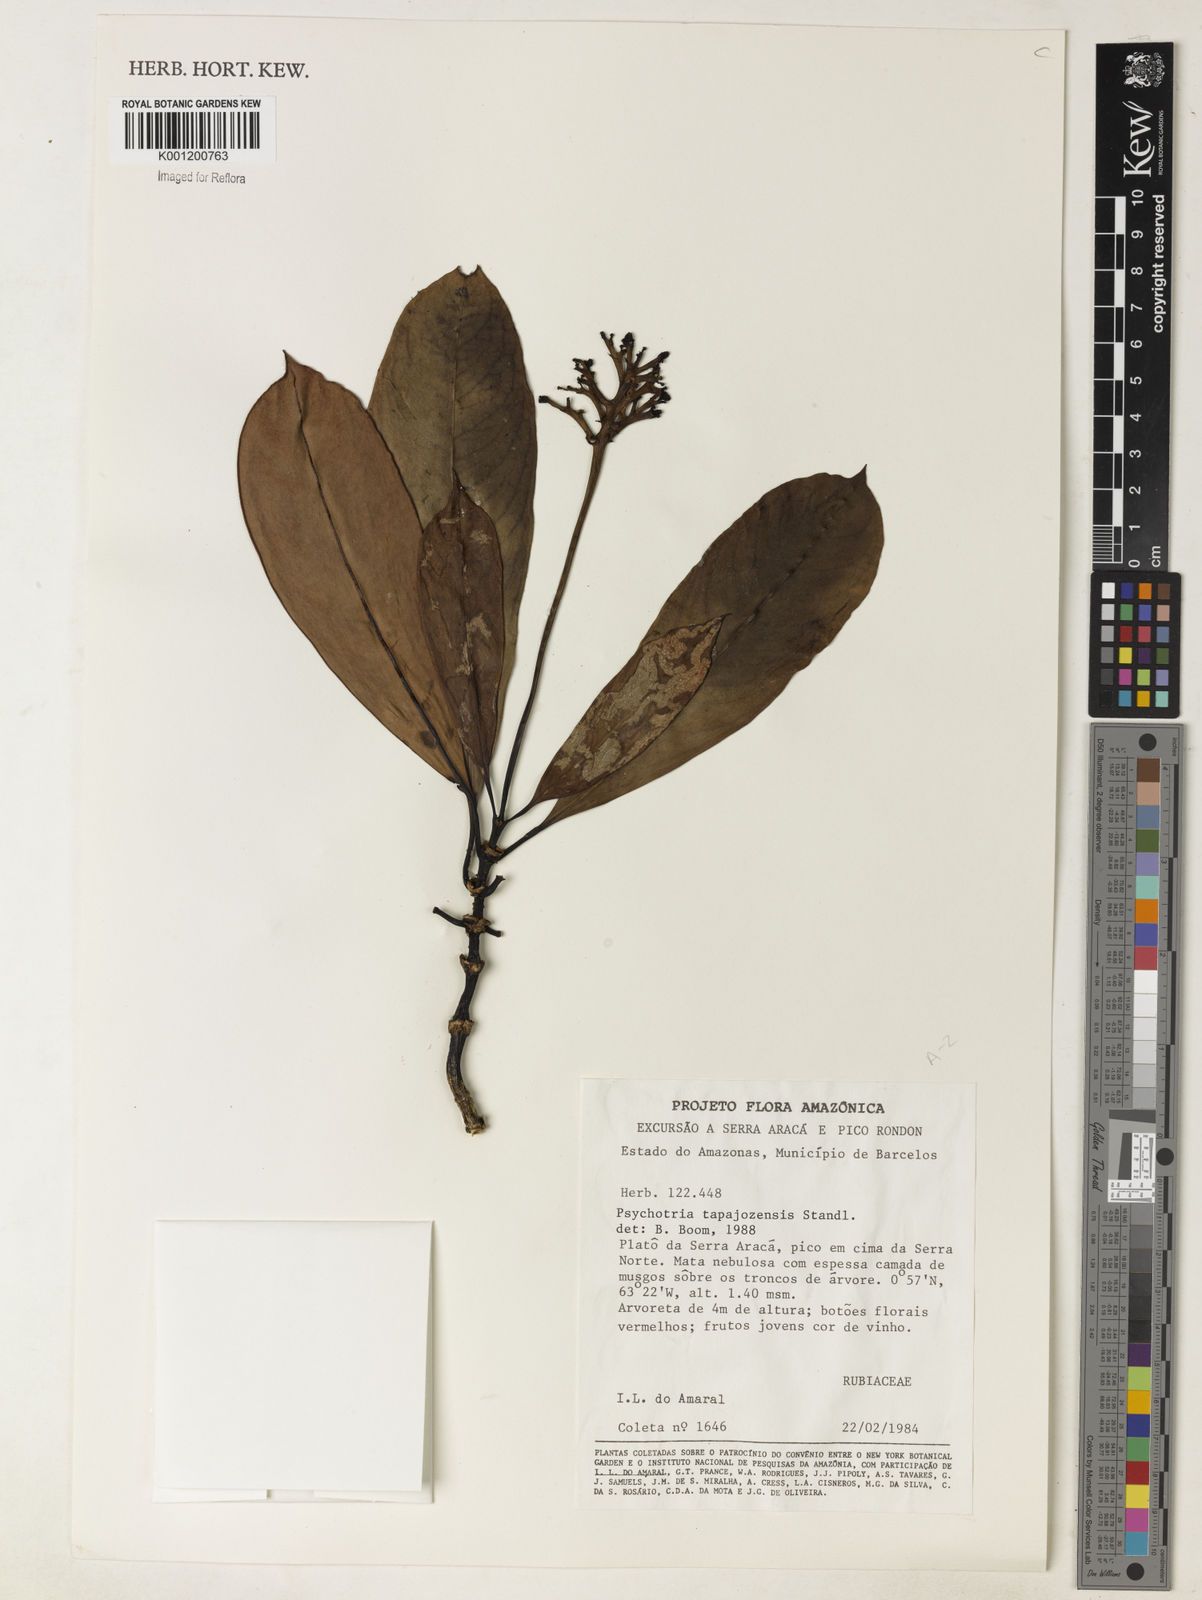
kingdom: Plantae
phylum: Tracheophyta
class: Magnoliopsida
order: Gentianales
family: Rubiaceae
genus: Notopleura
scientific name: Notopleura tapajozensis
